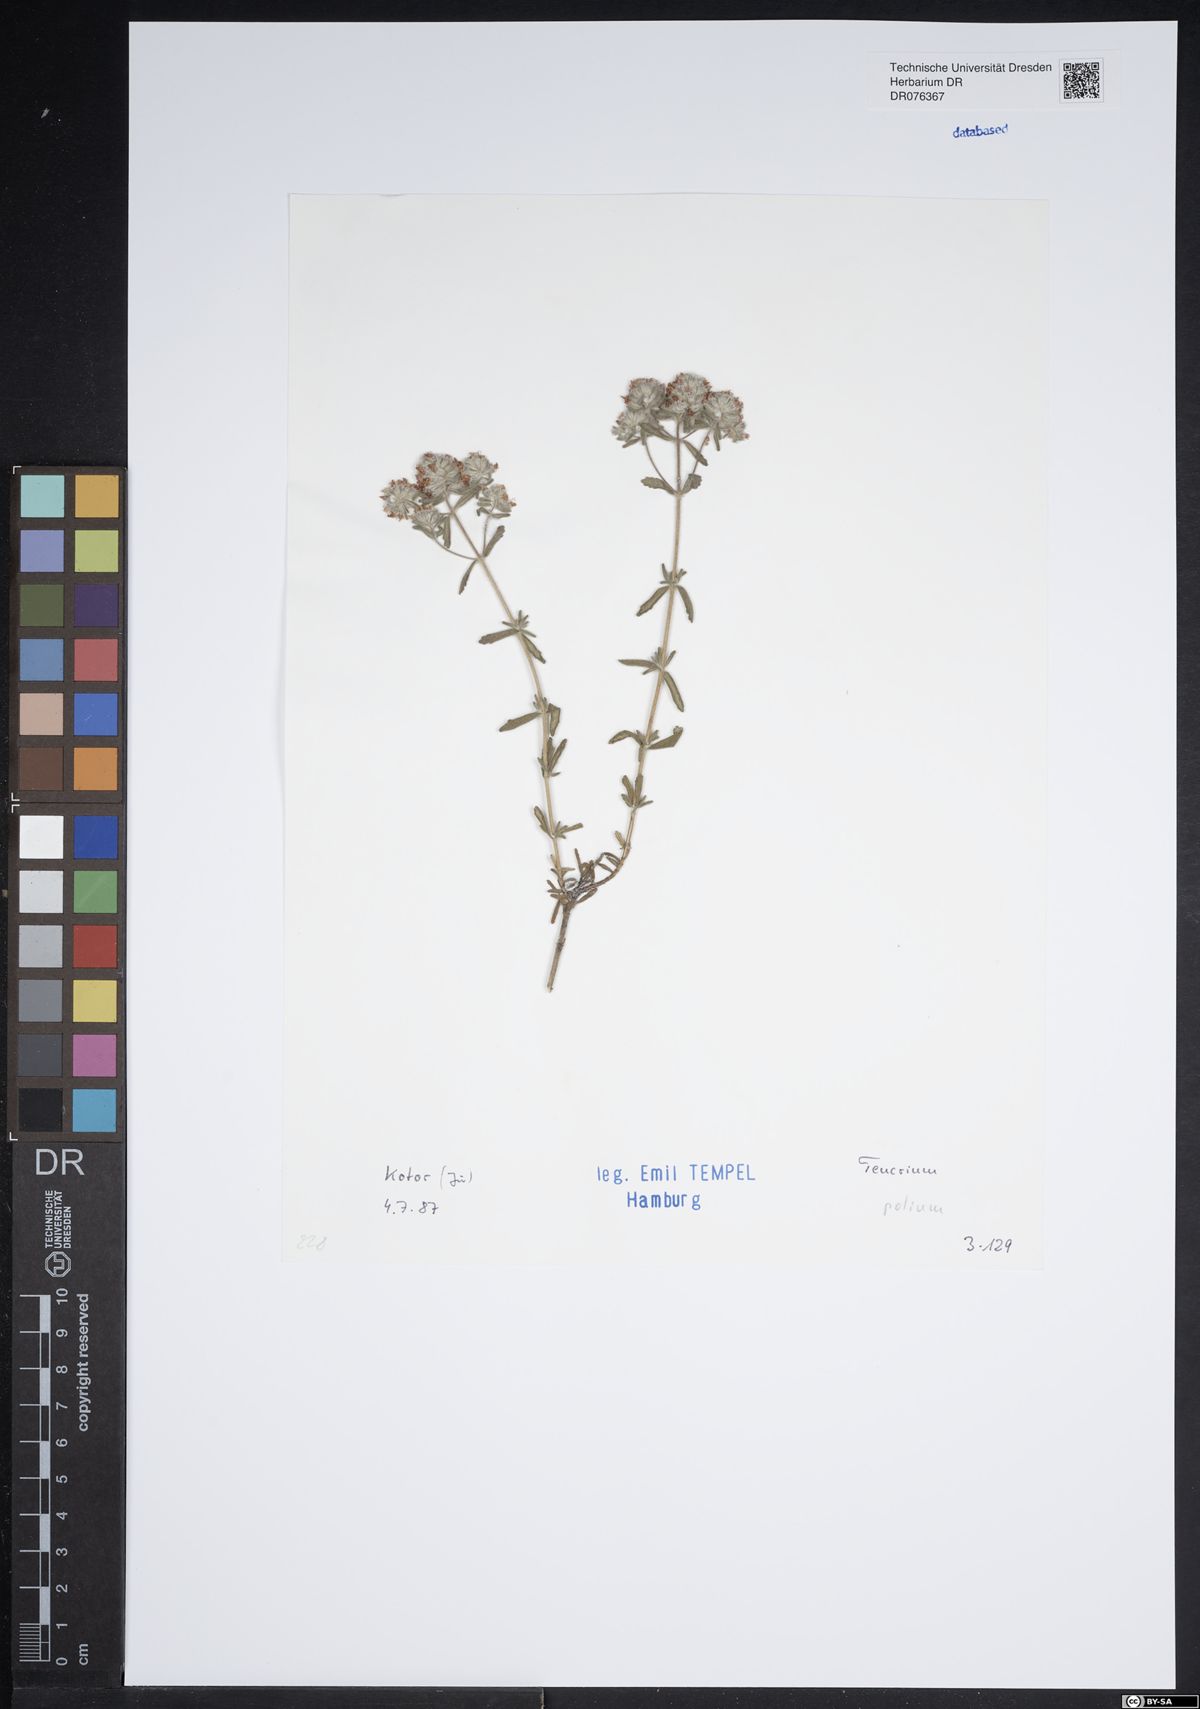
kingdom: Plantae
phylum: Tracheophyta
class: Magnoliopsida
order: Lamiales
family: Lamiaceae
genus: Teucrium
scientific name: Teucrium polium
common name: Poley
